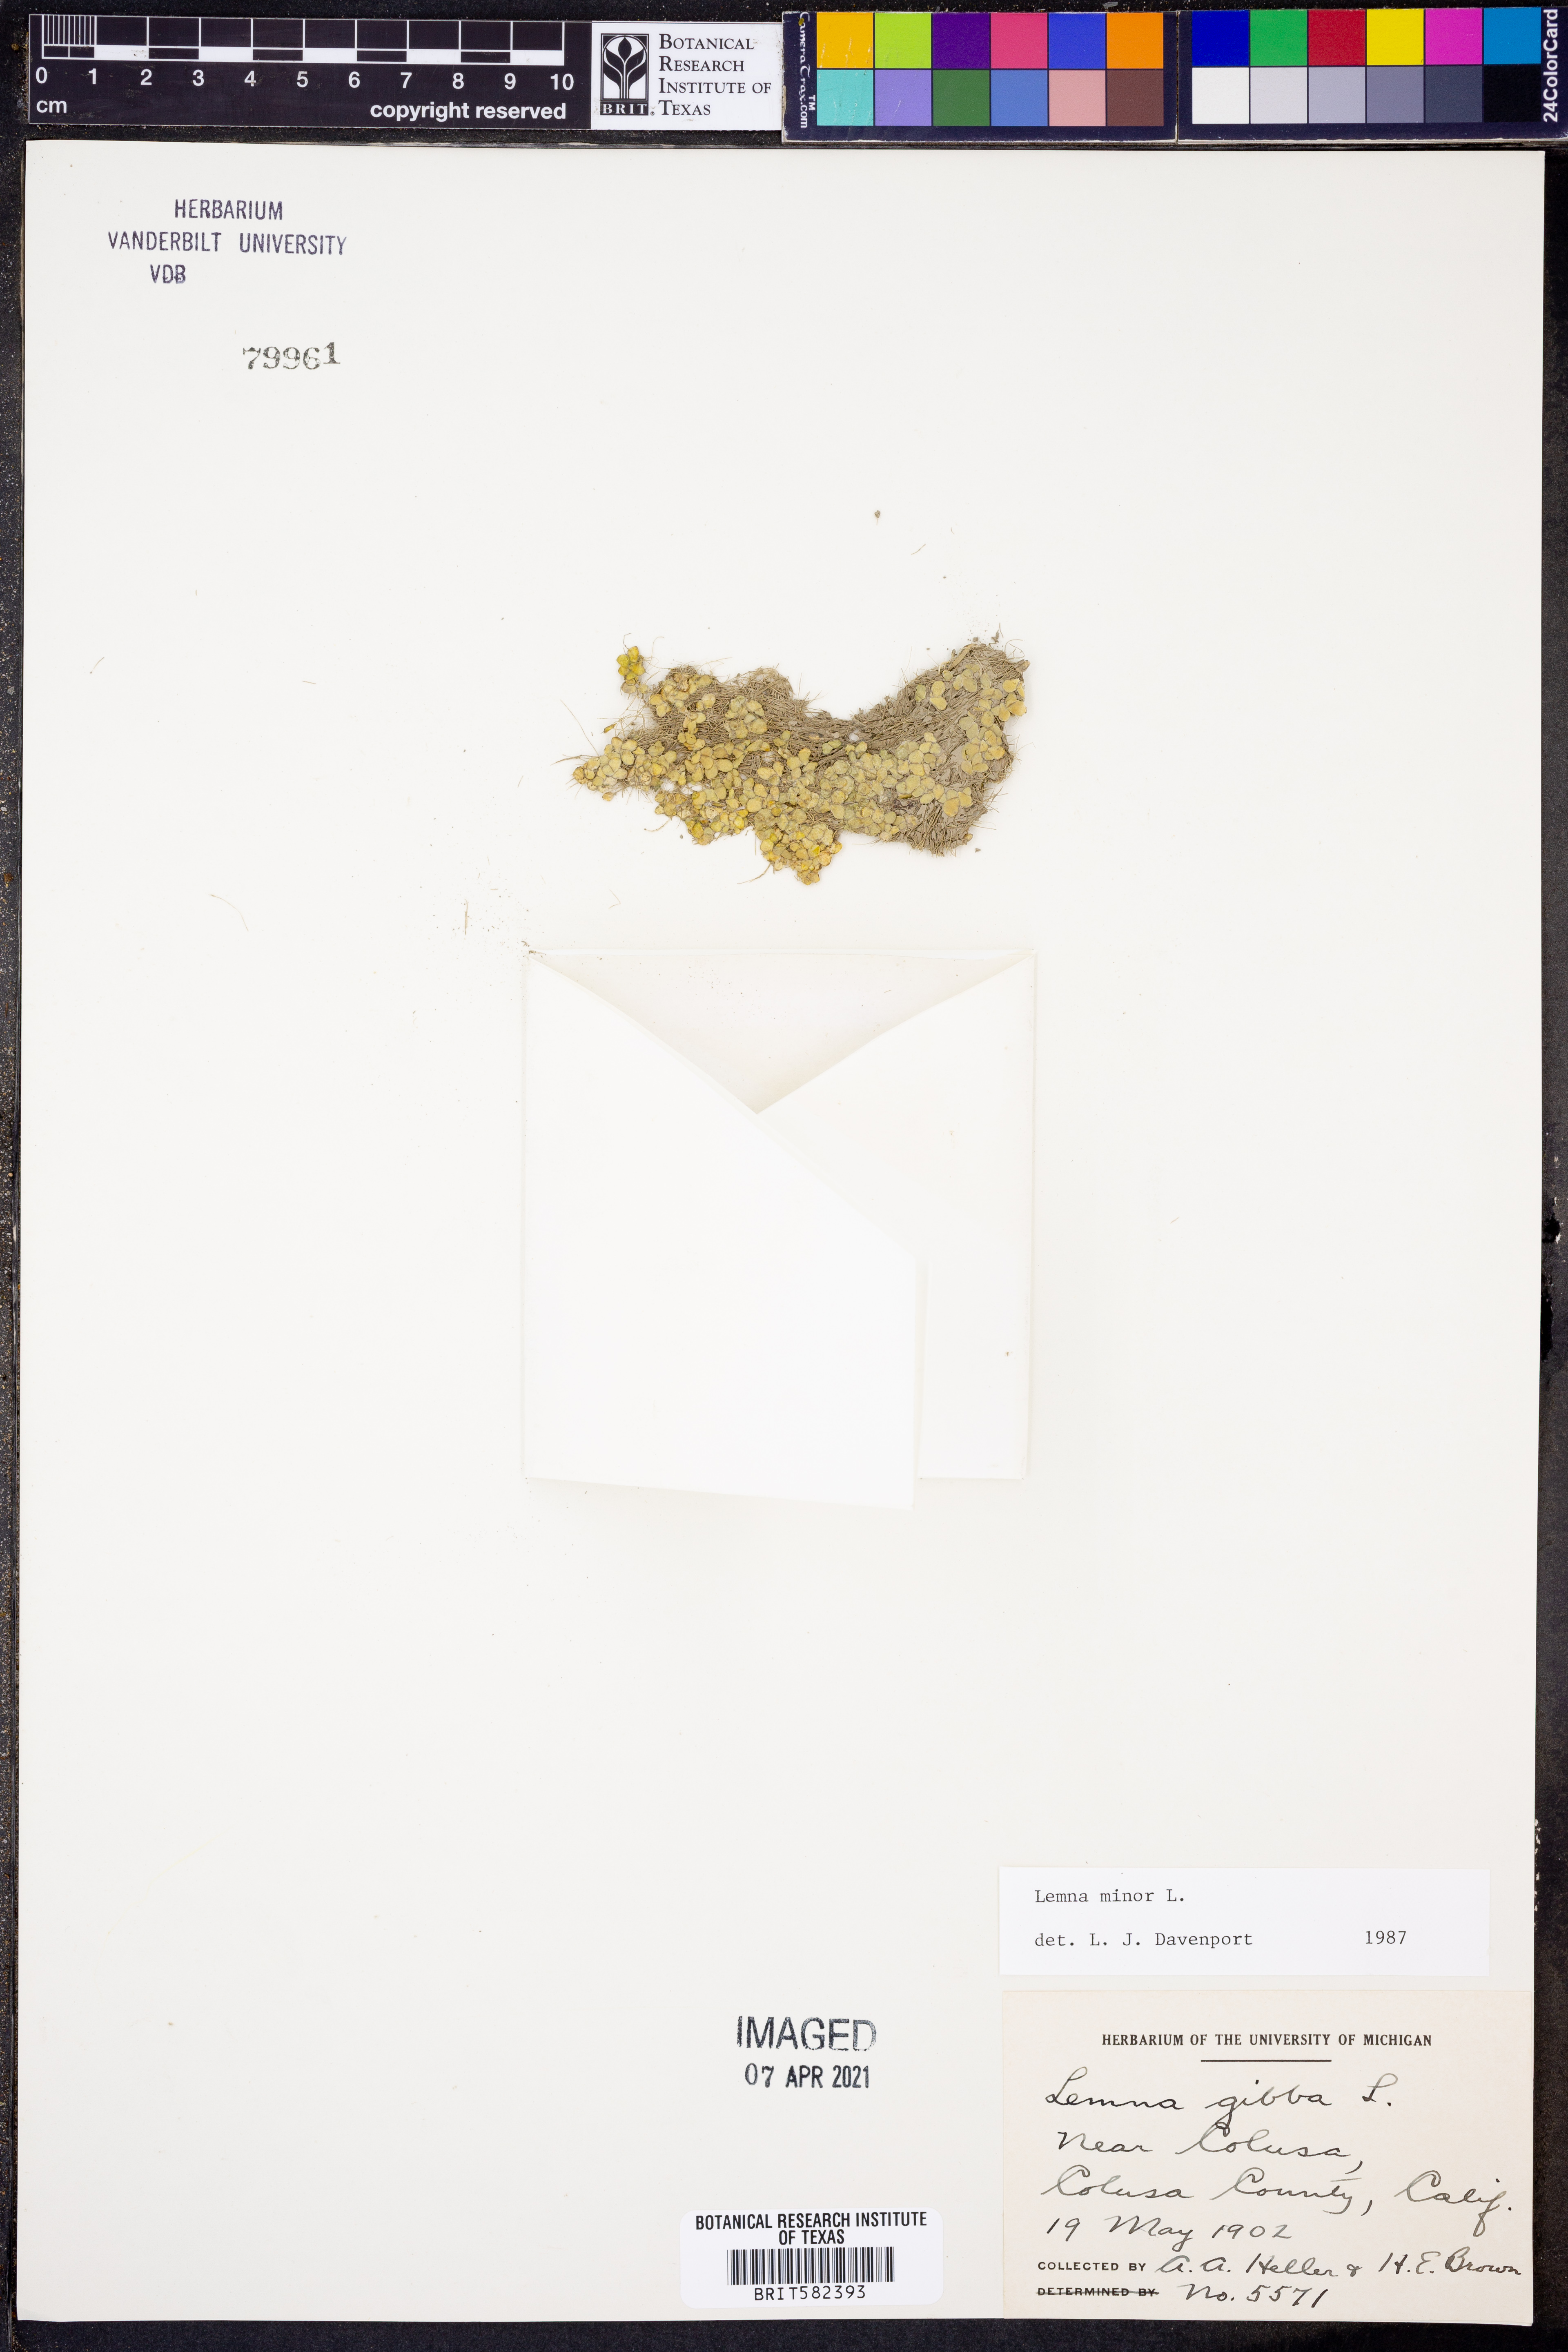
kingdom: Plantae
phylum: Tracheophyta
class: Liliopsida
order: Alismatales
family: Araceae
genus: Lemna
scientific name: Lemna minor
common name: Common duckweed
